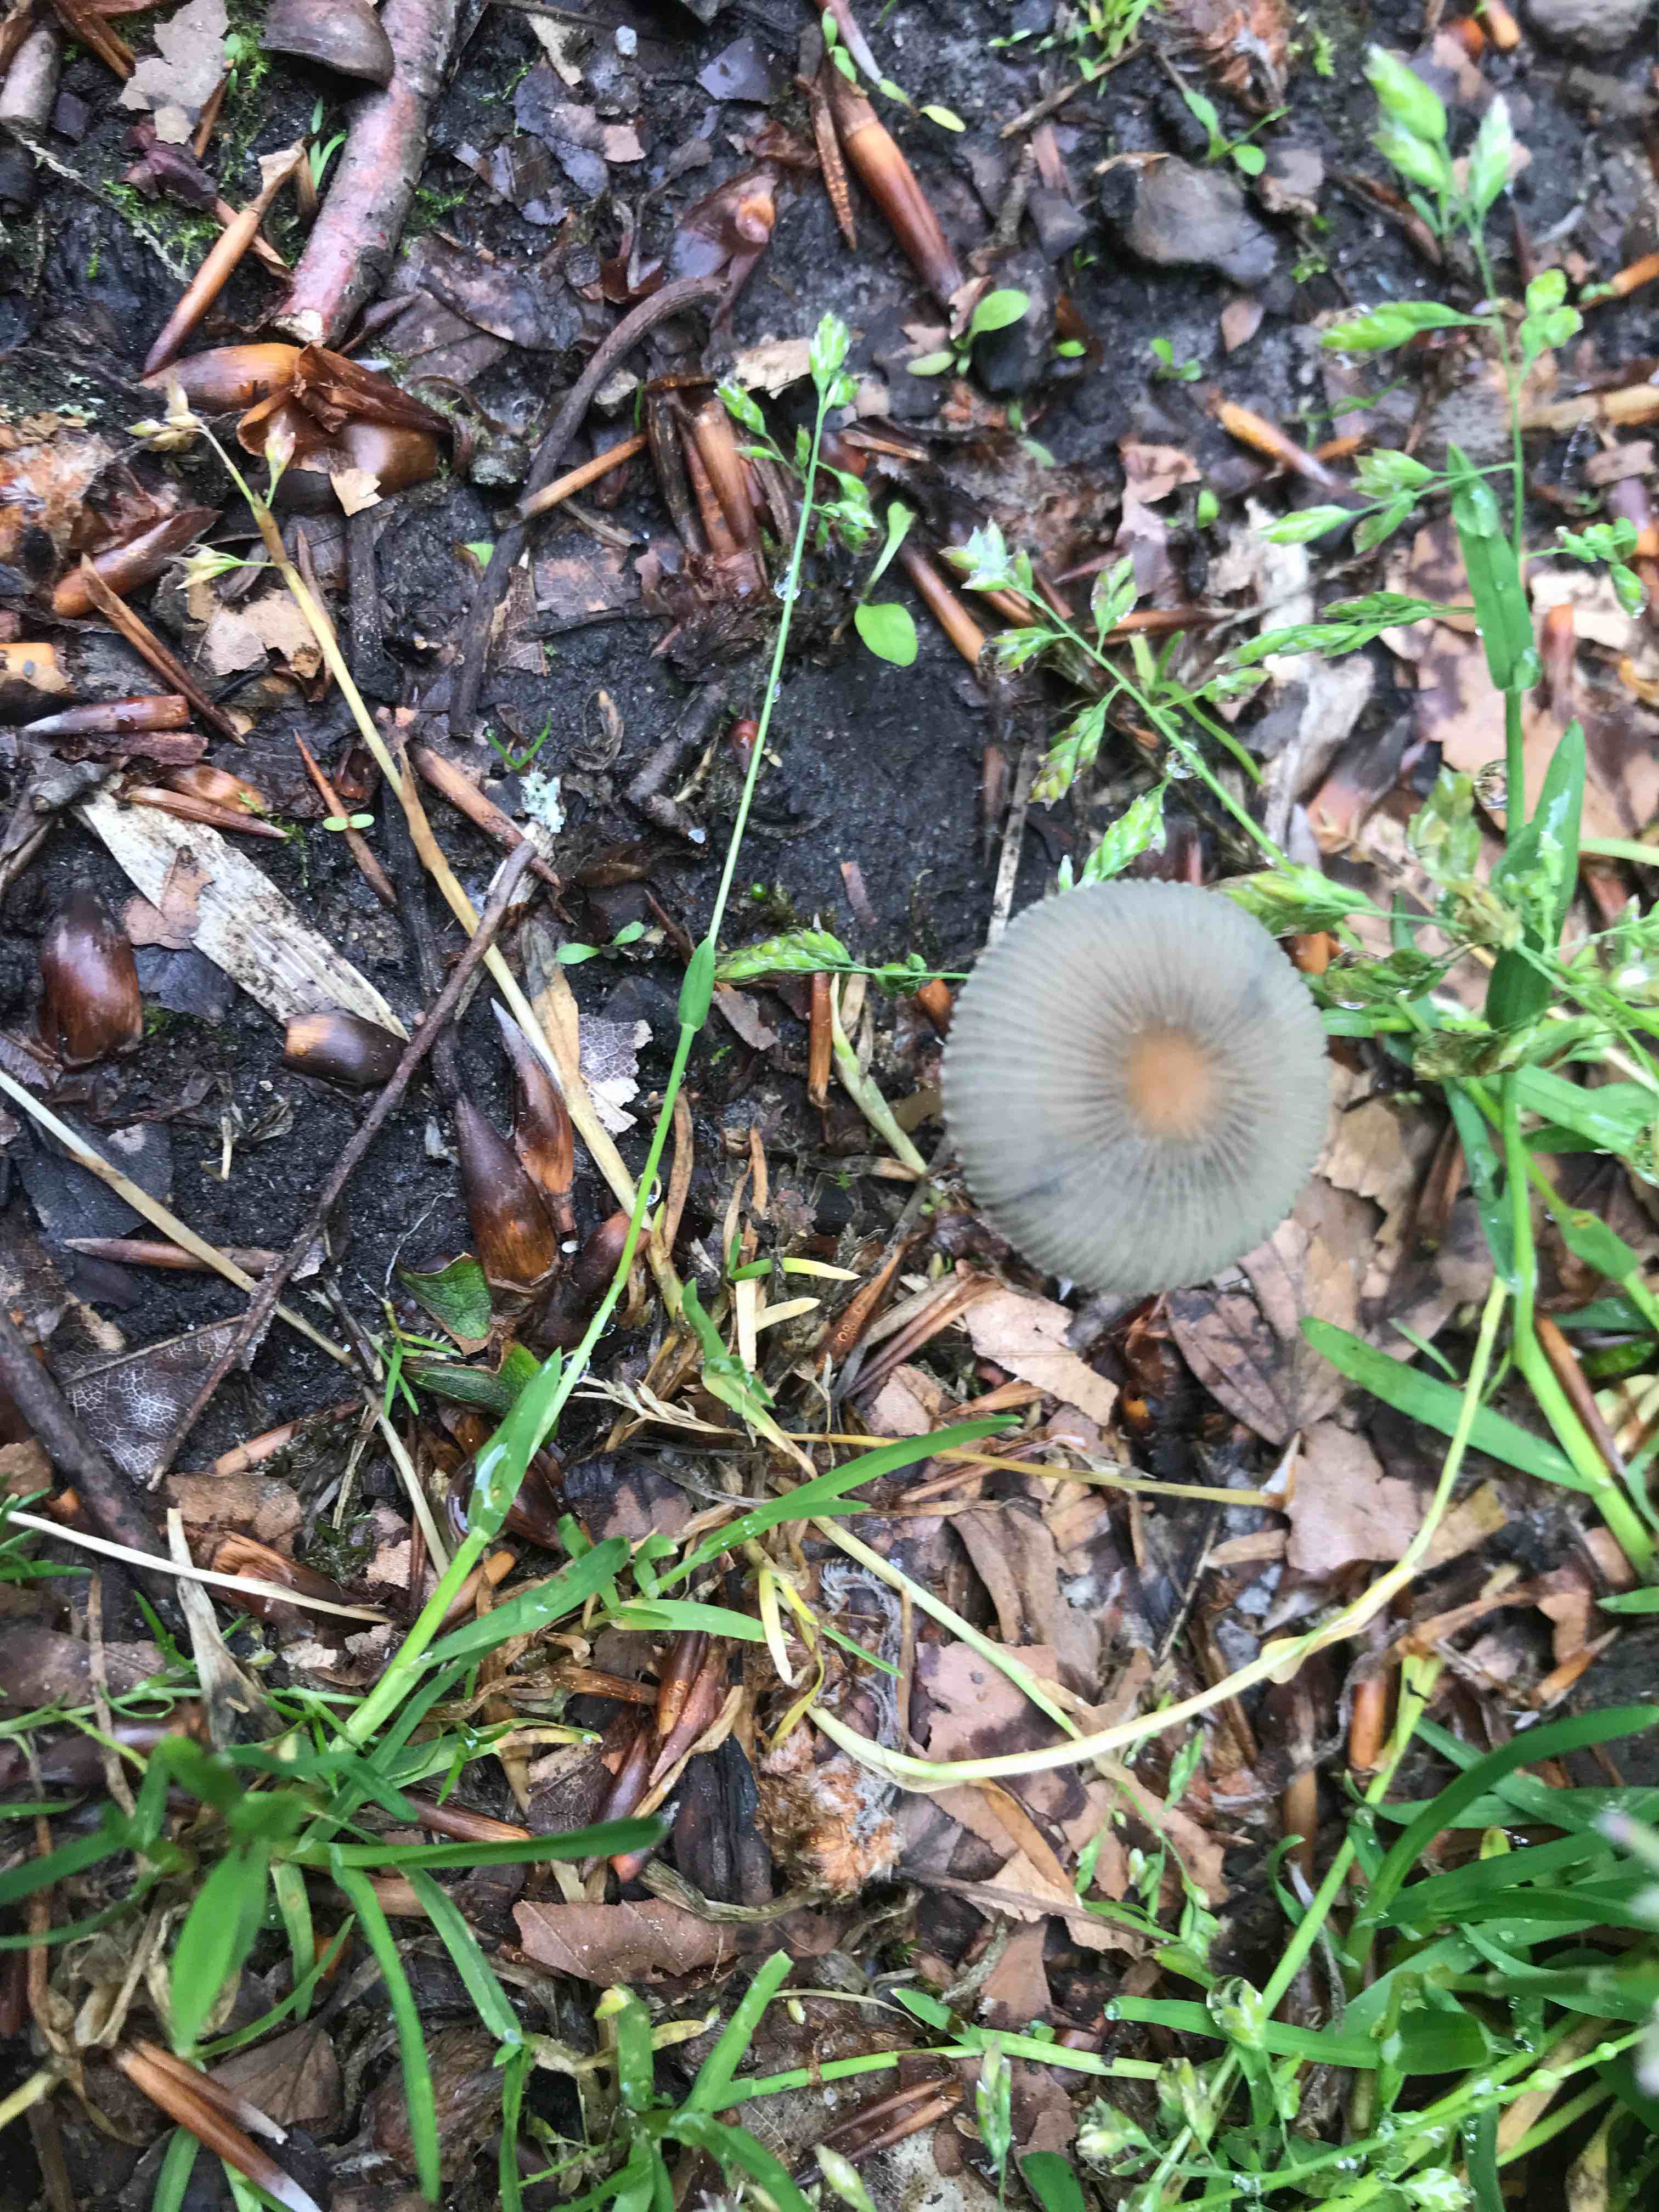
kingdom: Fungi
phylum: Basidiomycota
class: Agaricomycetes
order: Agaricales
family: Psathyrellaceae
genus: Parasola
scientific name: Parasola
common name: hjulhat
